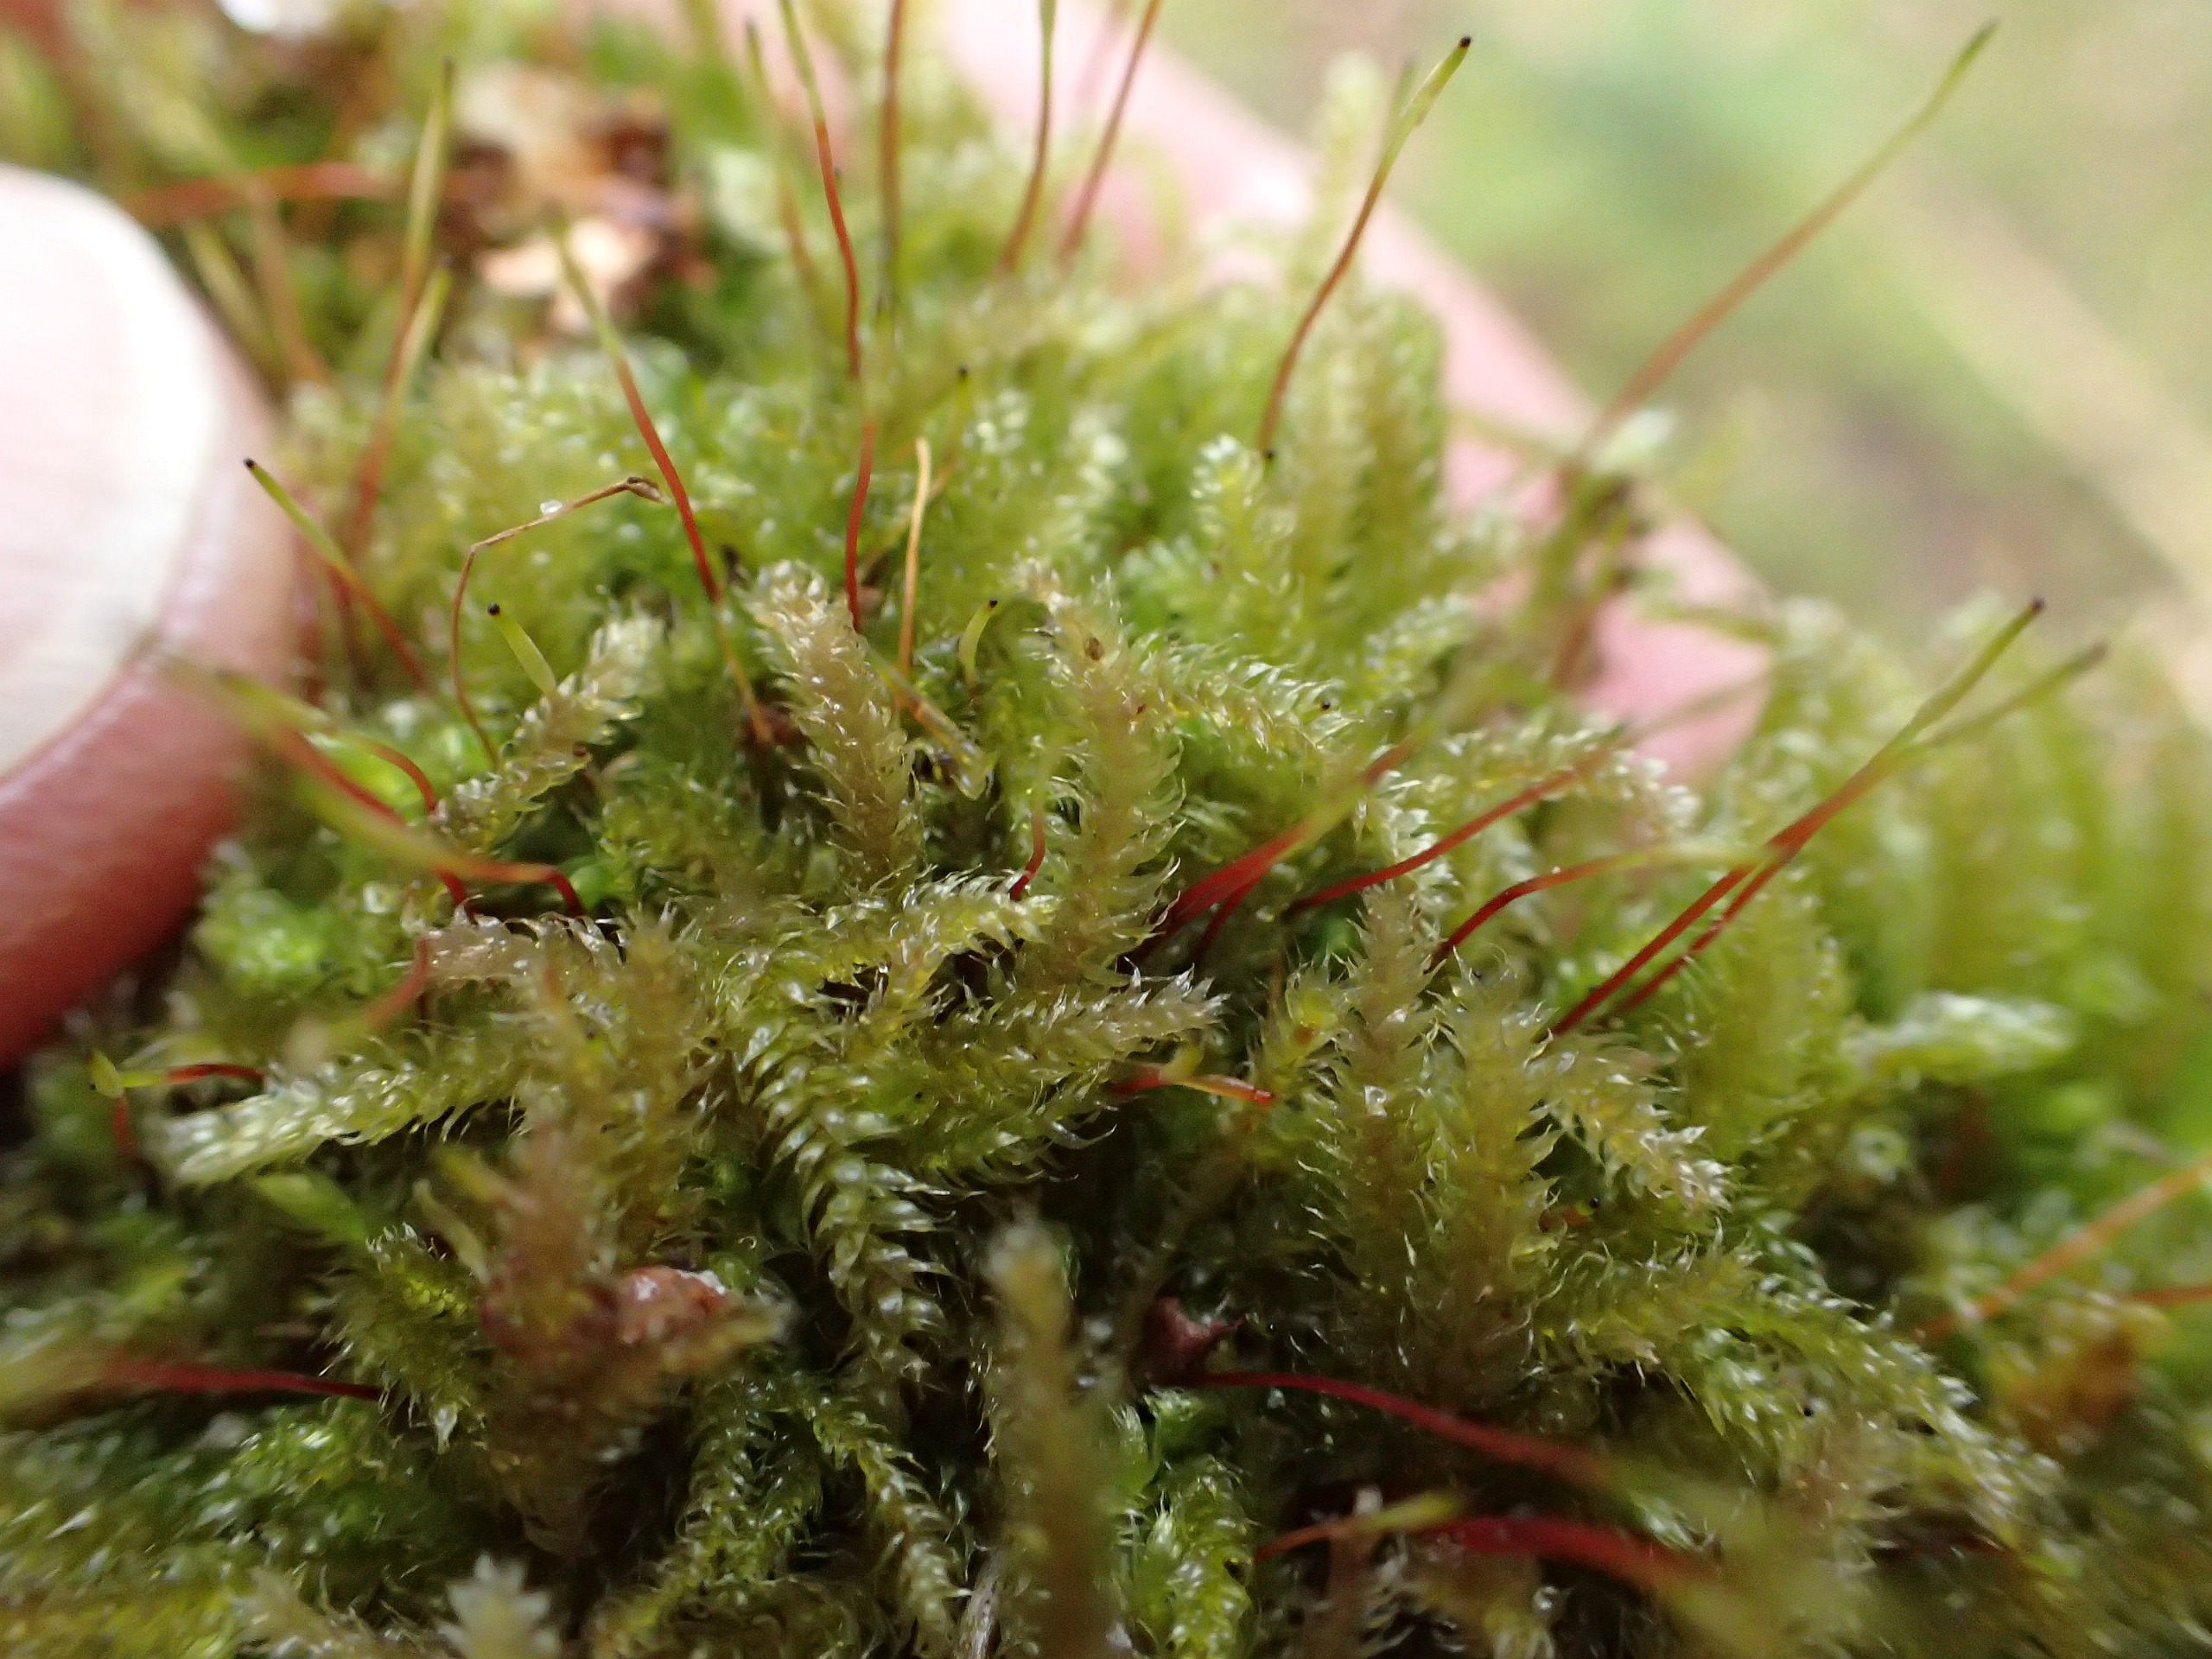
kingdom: Plantae
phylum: Bryophyta
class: Bryopsida
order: Hypnales
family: Plagiotheciaceae
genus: Herzogiella
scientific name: Herzogiella seligeri
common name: Stub-pølsekapsel
